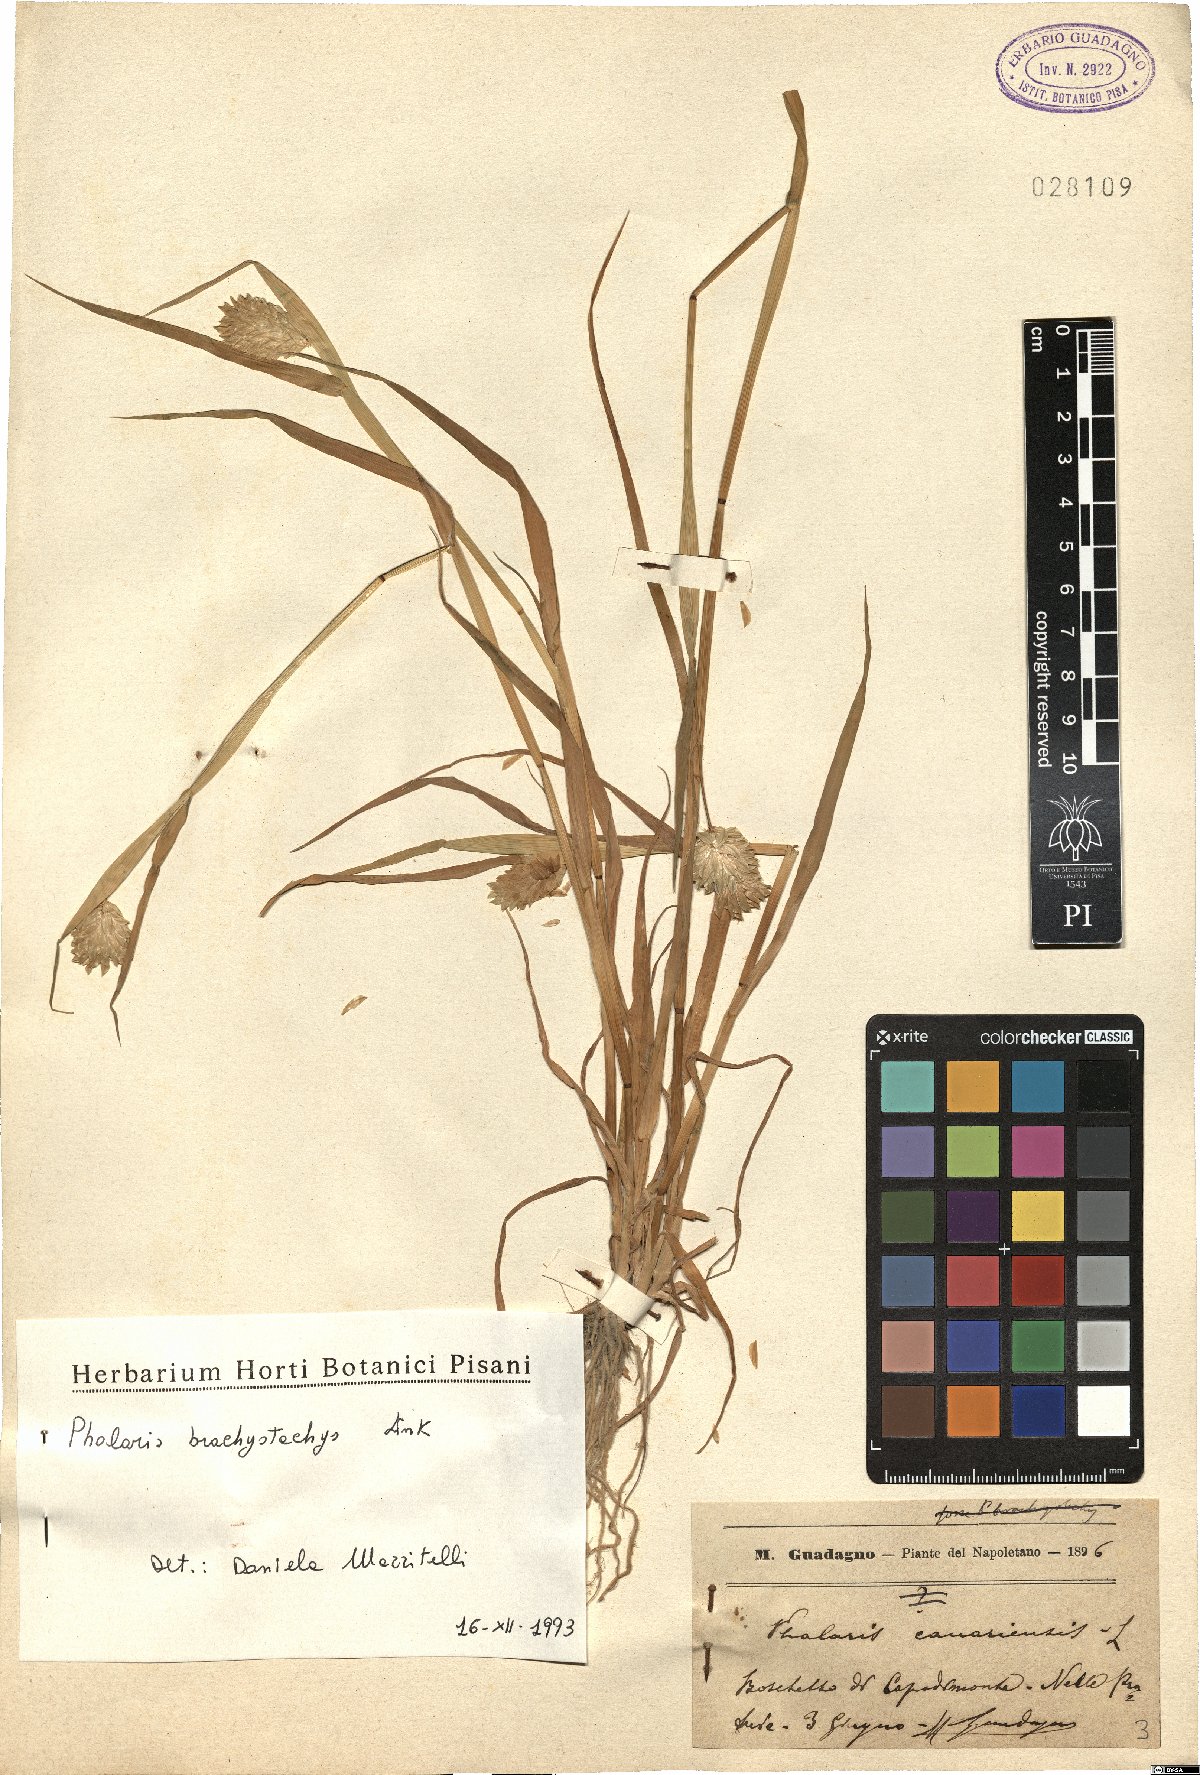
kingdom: Plantae
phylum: Tracheophyta
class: Liliopsida
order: Poales
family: Poaceae
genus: Phalaris
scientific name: Phalaris brachystachys
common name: Confused canary-grass
